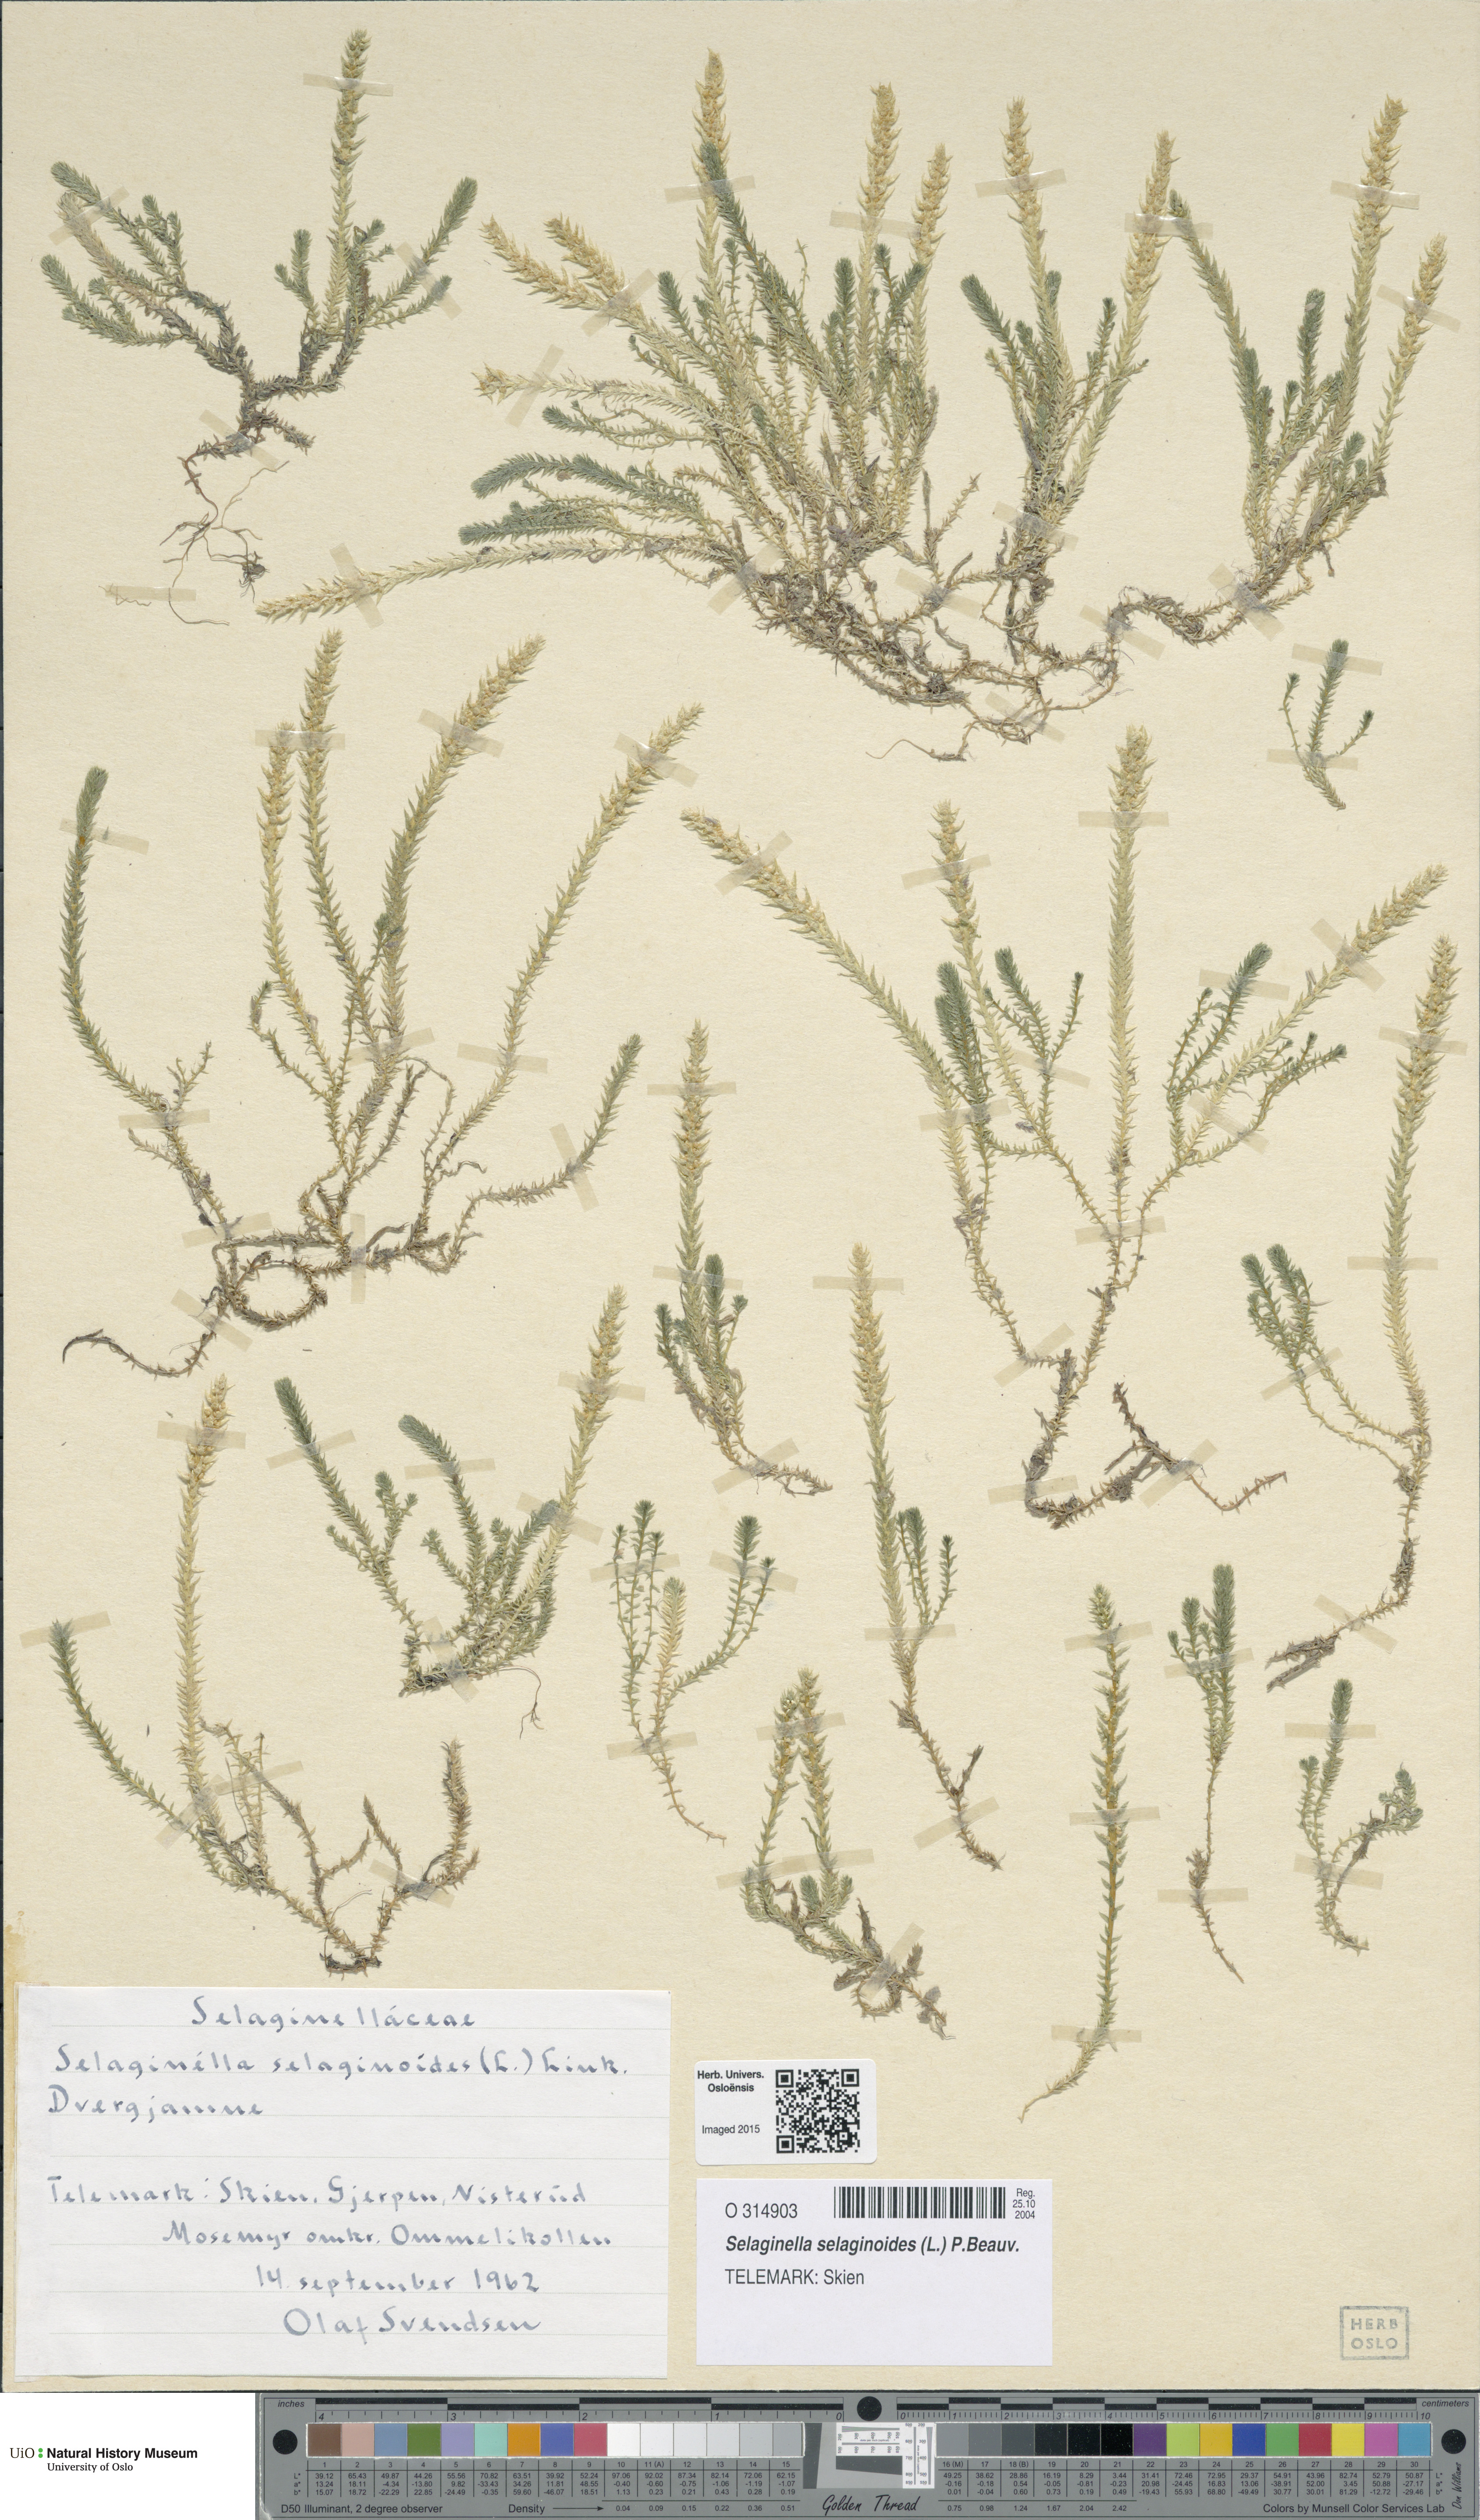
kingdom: Plantae
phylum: Tracheophyta
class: Lycopodiopsida
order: Selaginellales
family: Selaginellaceae
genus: Selaginella
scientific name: Selaginella selaginoides
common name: Prickly mountain-moss
